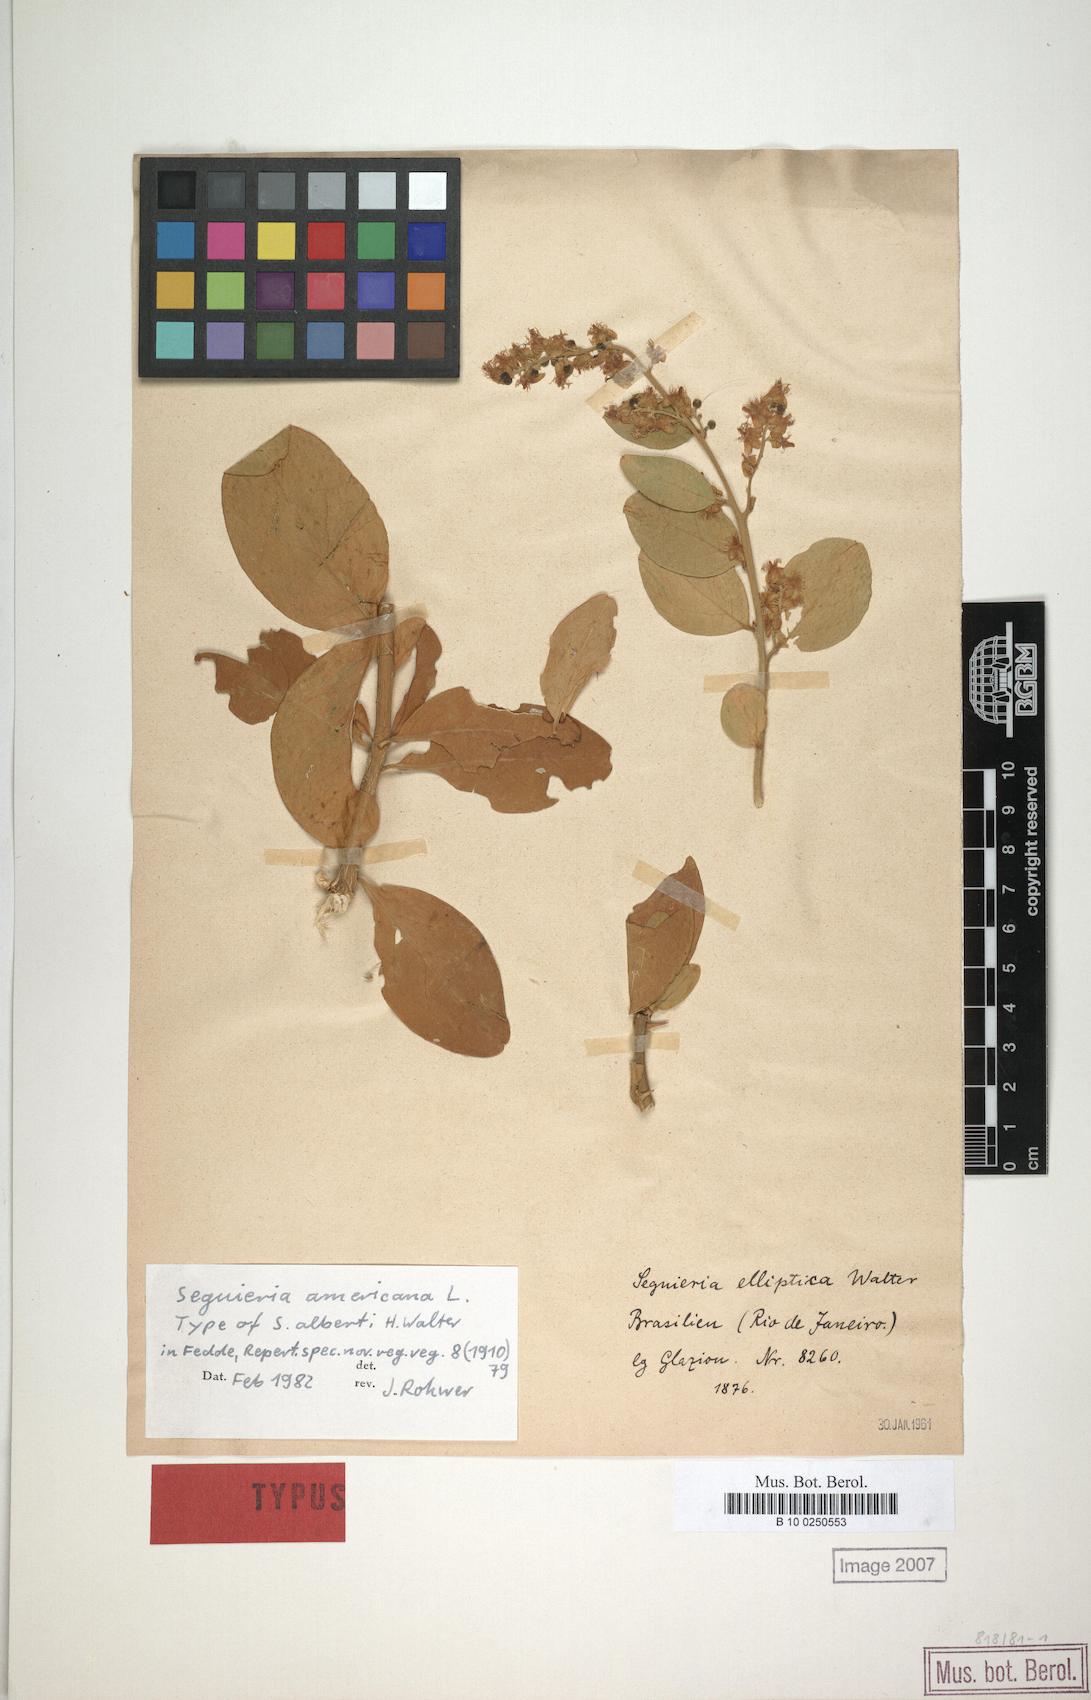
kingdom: Plantae
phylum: Tracheophyta
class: Magnoliopsida
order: Caryophyllales
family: Phytolaccaceae
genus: Seguieria
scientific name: Seguieria americana
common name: American seguieria
